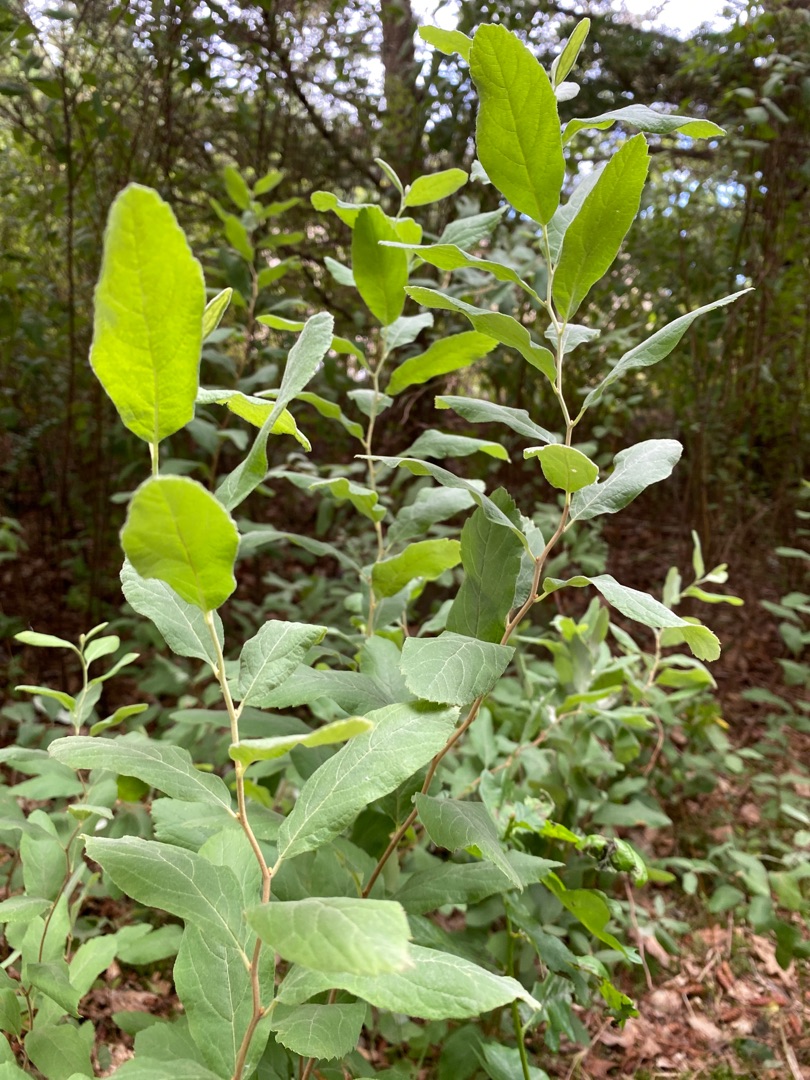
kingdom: Plantae
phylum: Tracheophyta
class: Magnoliopsida
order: Rosales
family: Rosaceae
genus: Spiraea
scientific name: Spiraea
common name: Spiræaslægten
